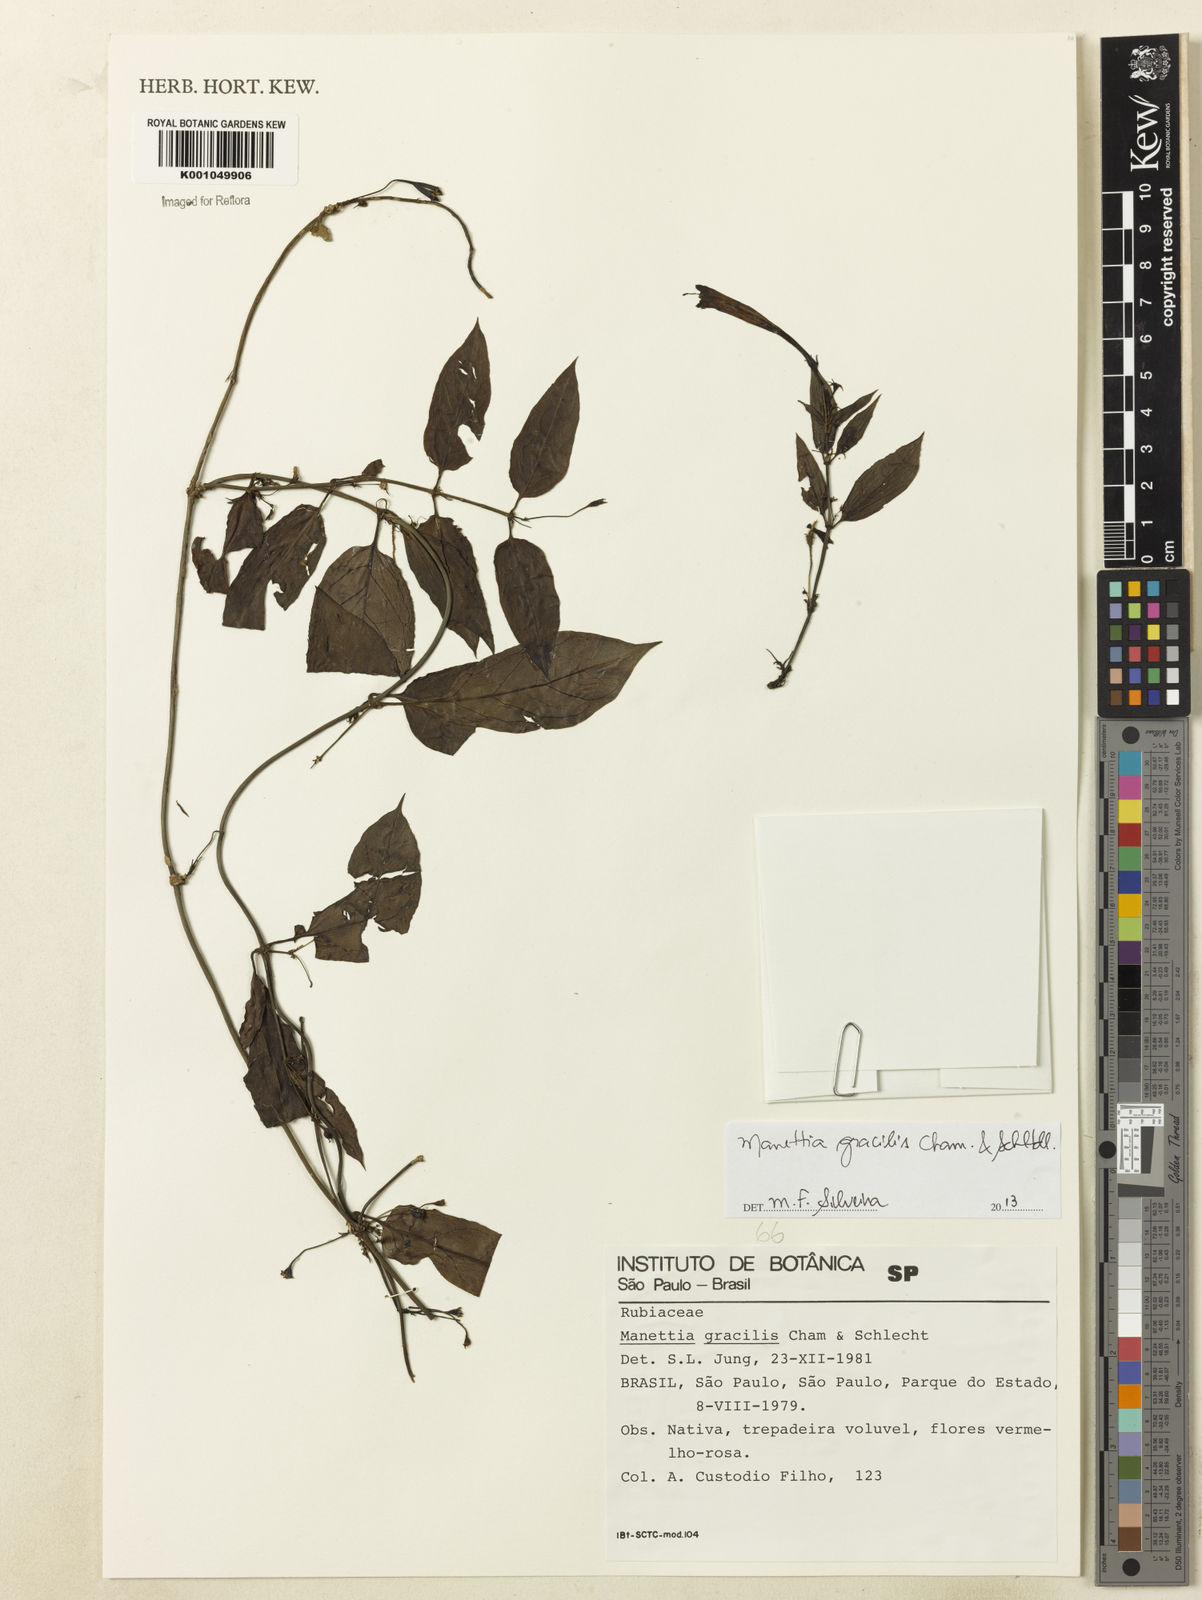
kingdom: Plantae
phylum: Tracheophyta
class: Magnoliopsida
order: Gentianales
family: Rubiaceae
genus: Manettia
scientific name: Manettia gracilis
